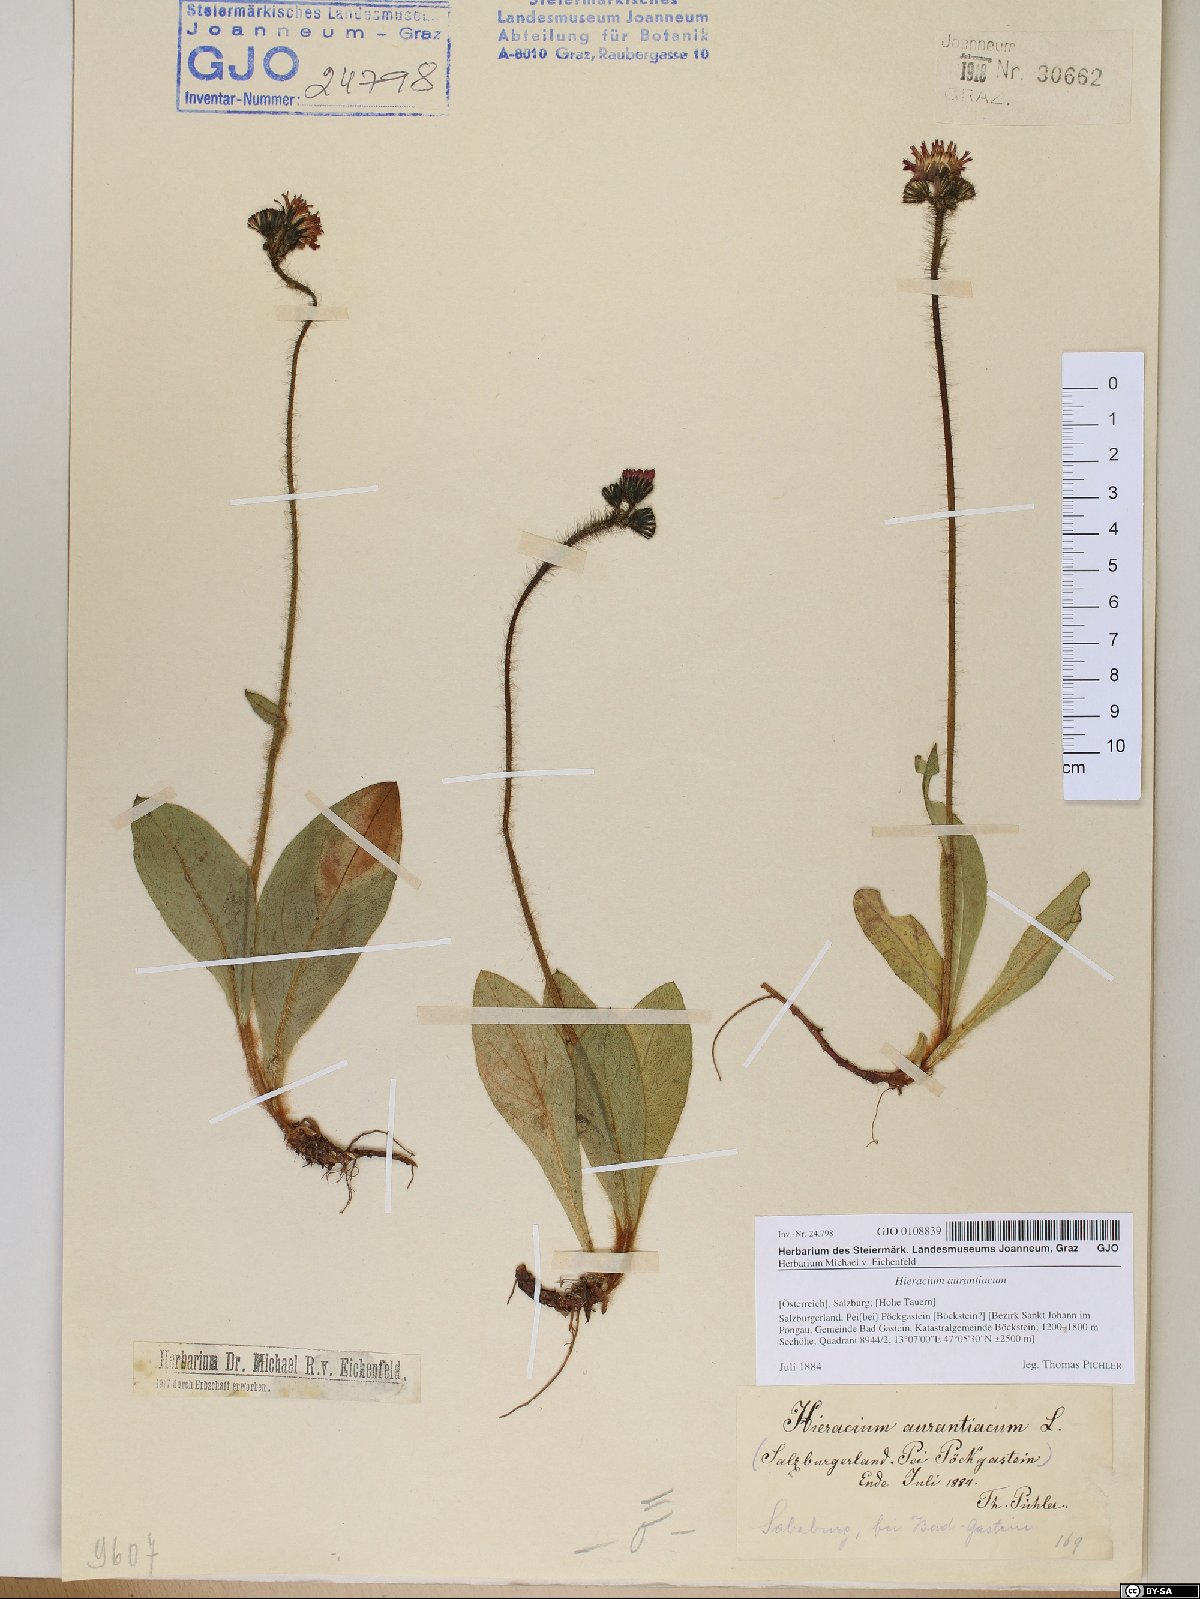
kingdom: Plantae
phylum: Tracheophyta
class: Magnoliopsida
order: Asterales
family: Asteraceae
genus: Pilosella
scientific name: Pilosella aurantiaca
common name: Fox-and-cubs
